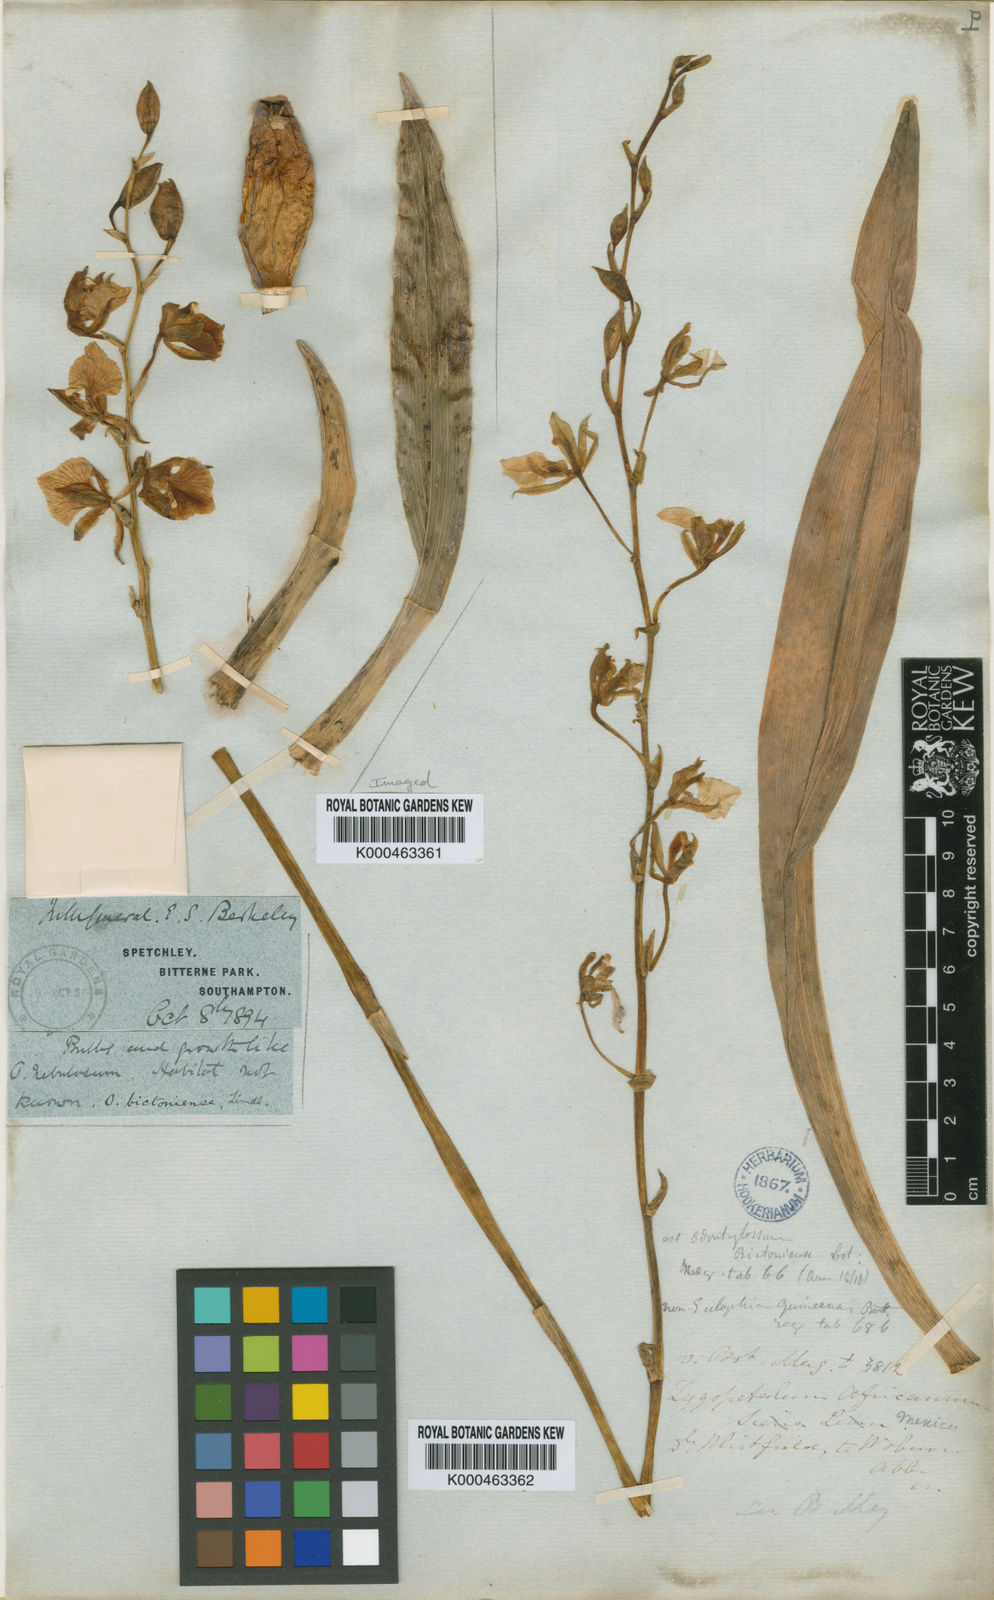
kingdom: Plantae
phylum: Tracheophyta
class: Liliopsida
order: Asparagales
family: Orchidaceae
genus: Rhynchostele
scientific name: Rhynchostele bictoniensis
